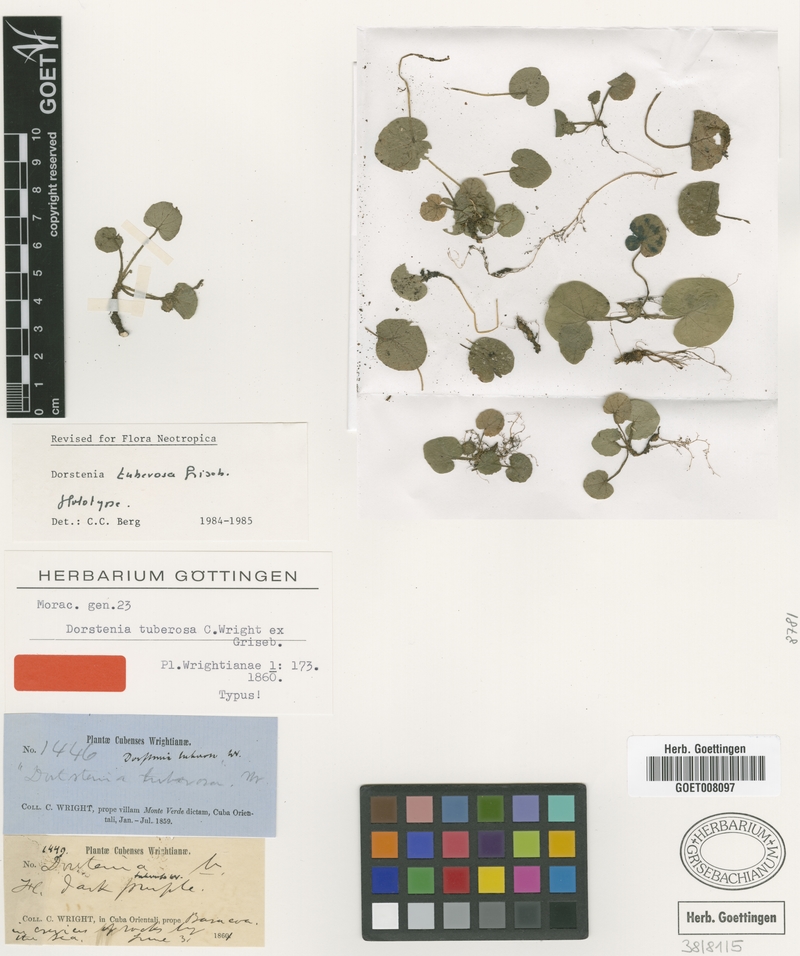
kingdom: Plantae
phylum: Tracheophyta
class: Magnoliopsida
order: Rosales
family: Moraceae
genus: Dorstenia
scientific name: Dorstenia tuberosa
